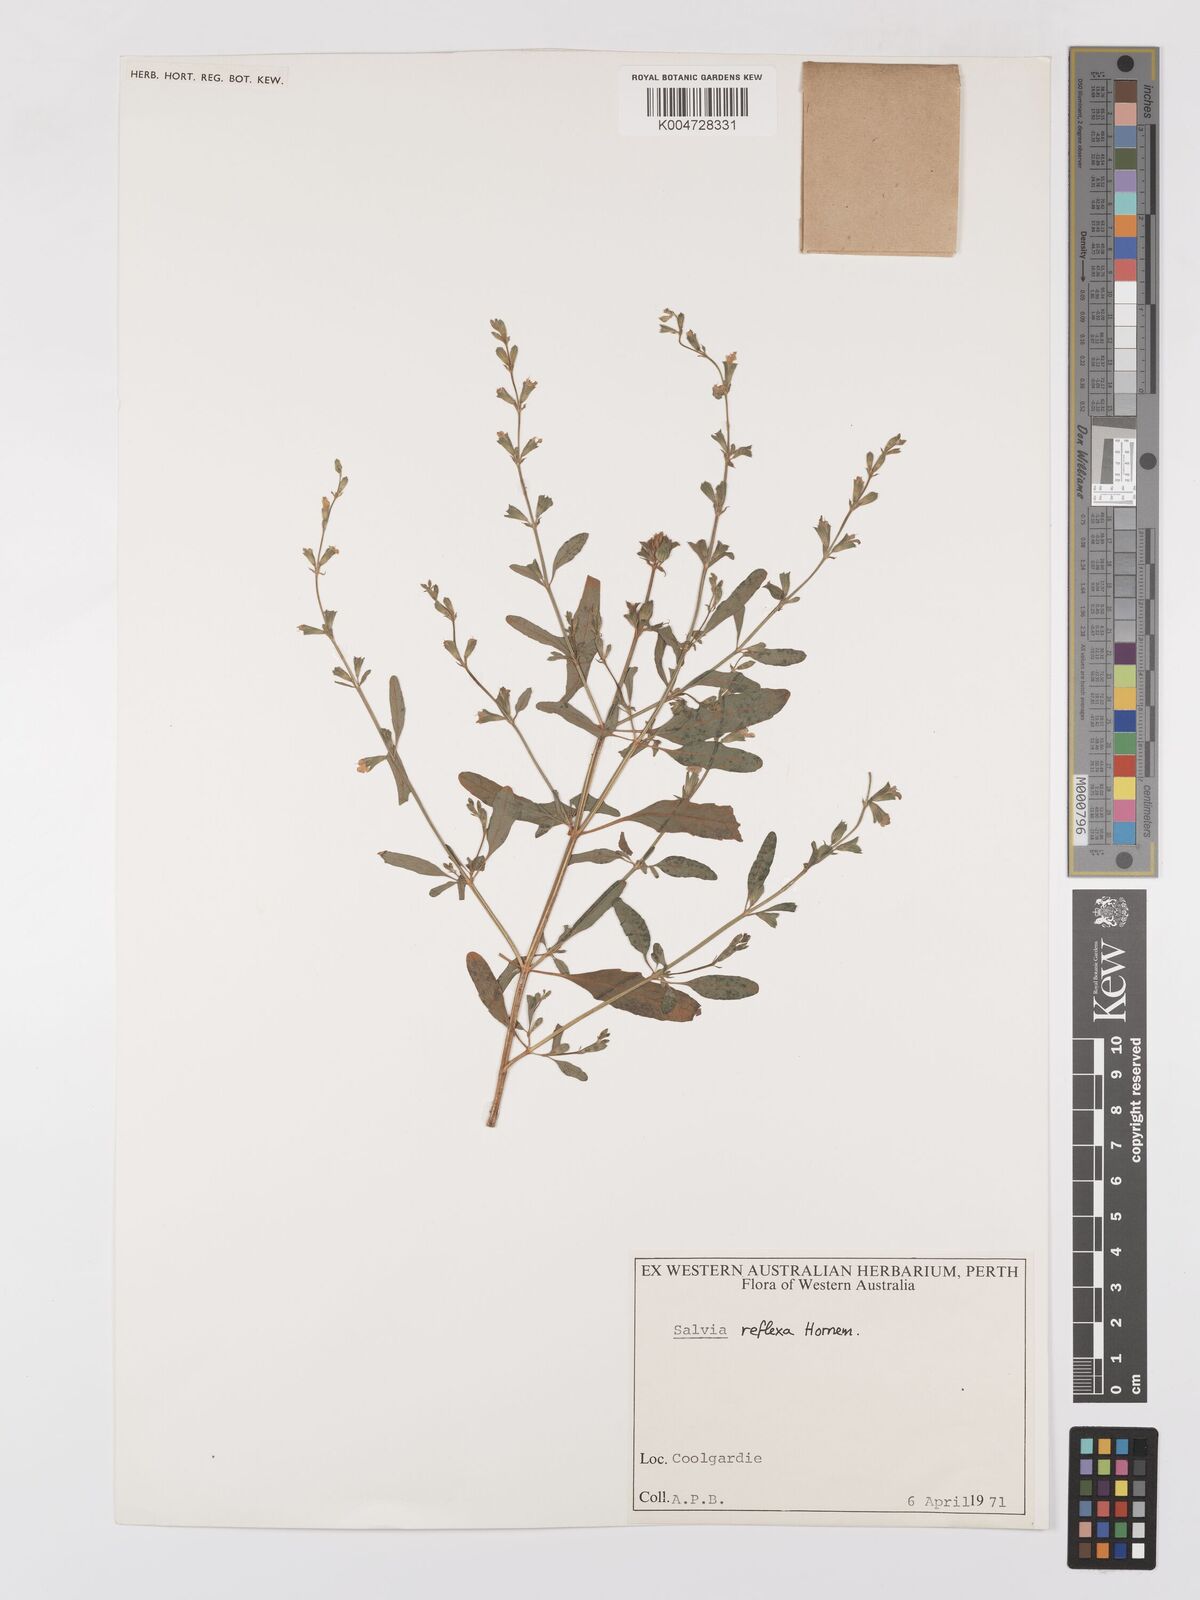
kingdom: Plantae
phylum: Tracheophyta
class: Magnoliopsida
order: Lamiales
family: Lamiaceae
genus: Salvia
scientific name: Salvia reflexa
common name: Mintweed
